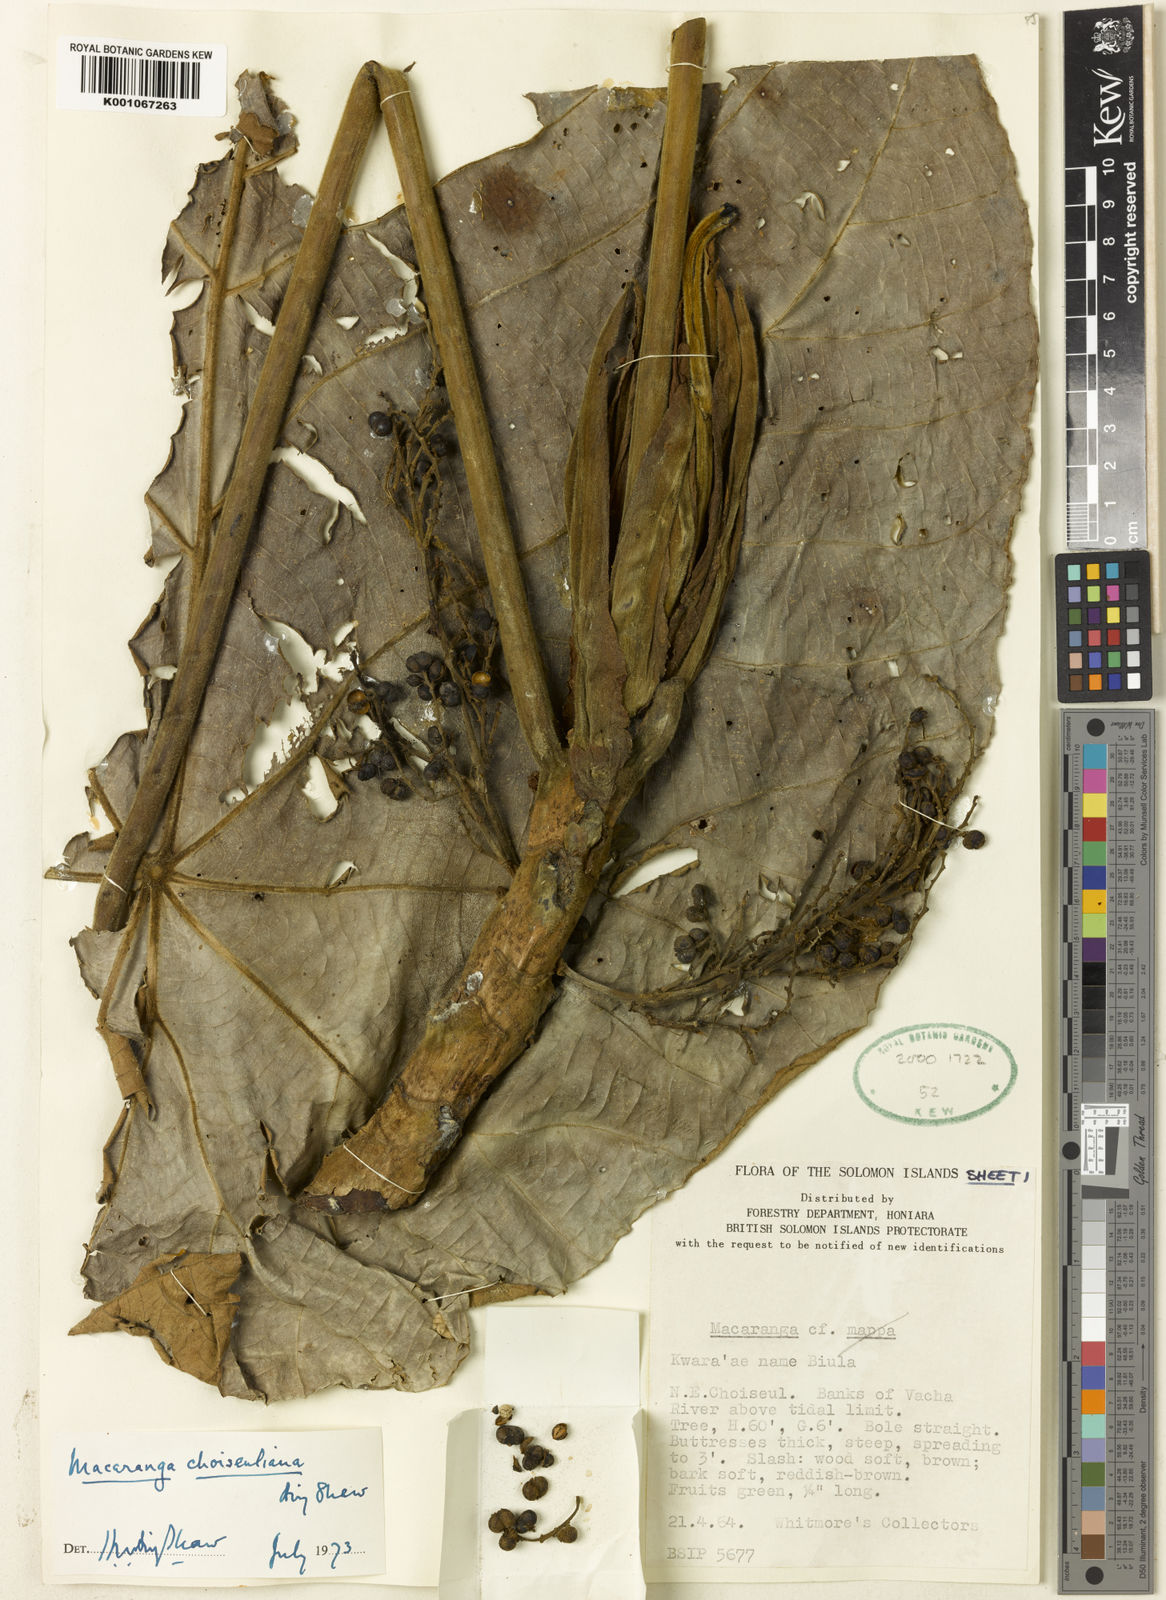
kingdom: Plantae
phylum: Tracheophyta
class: Magnoliopsida
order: Malpighiales
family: Euphorbiaceae
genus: Macaranga
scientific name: Macaranga choiseuliana
